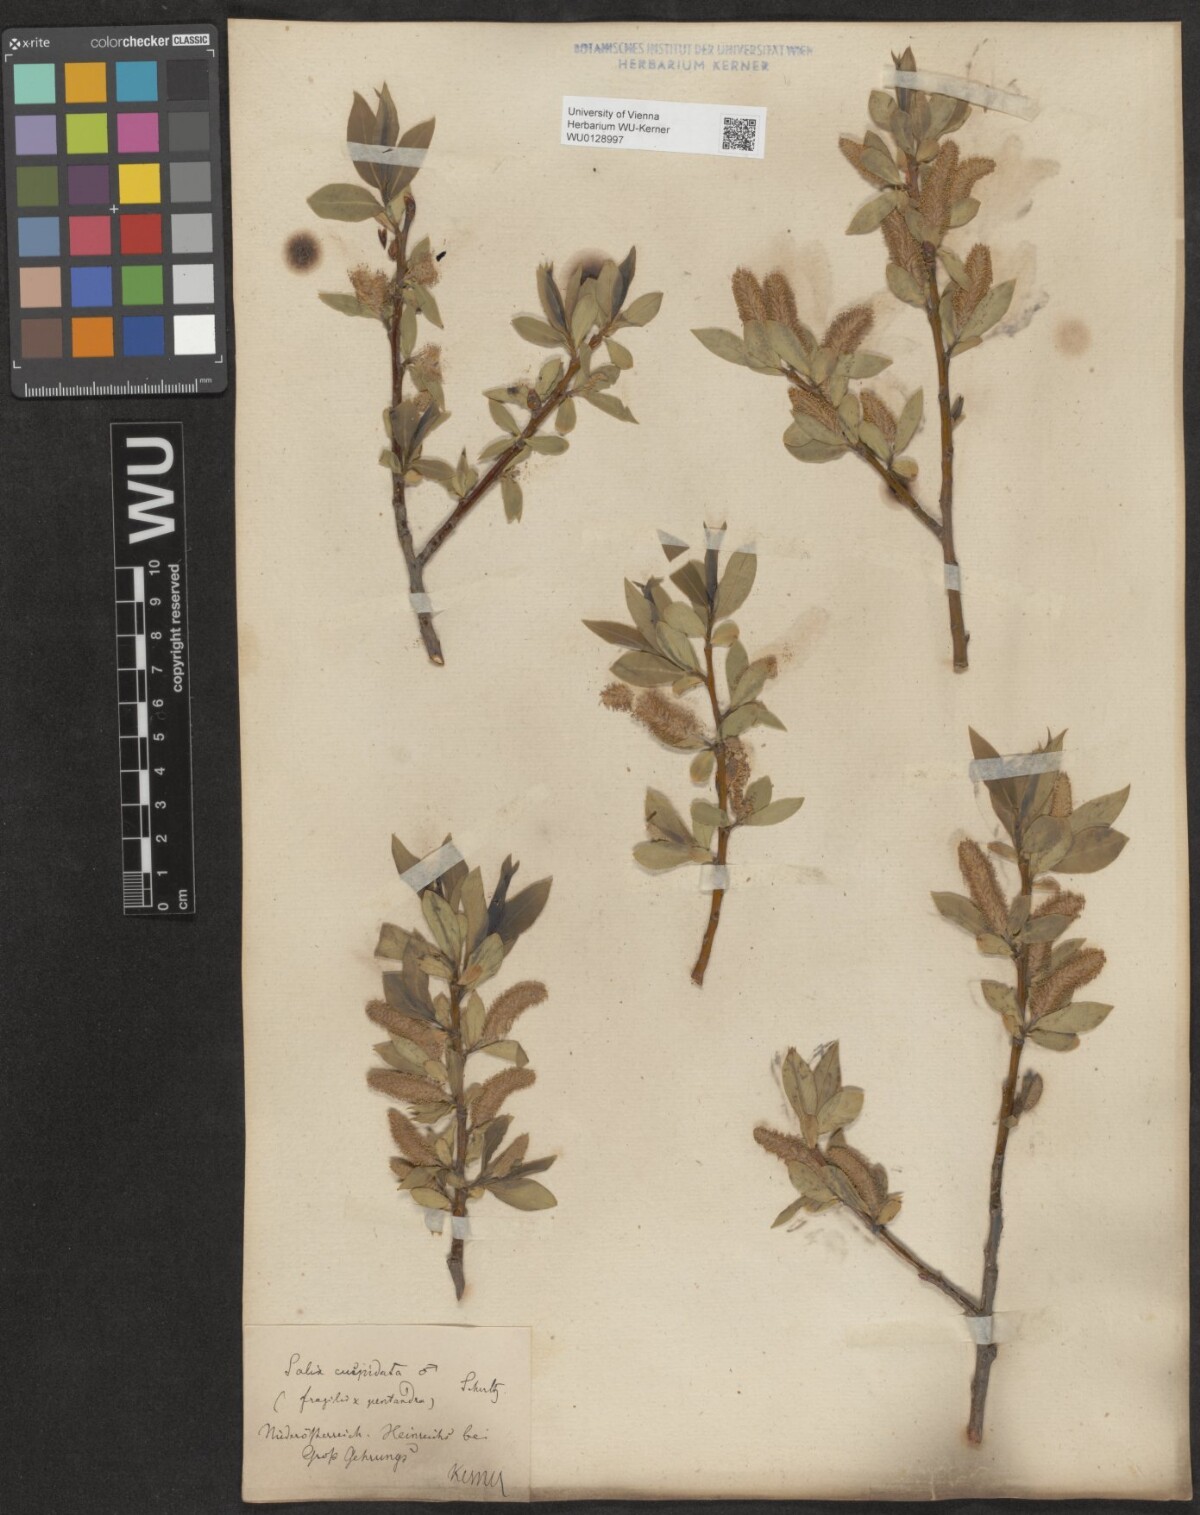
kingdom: Plantae
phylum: Tracheophyta
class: Magnoliopsida
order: Malpighiales
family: Salicaceae
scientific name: Salicaceae
